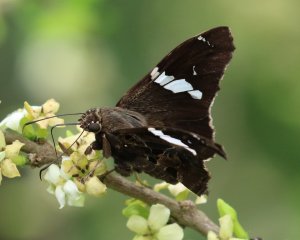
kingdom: Animalia
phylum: Arthropoda
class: Insecta
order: Lepidoptera
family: Hesperiidae
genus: Spathilepia
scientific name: Spathilepia clonius
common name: Falcate Skipper
